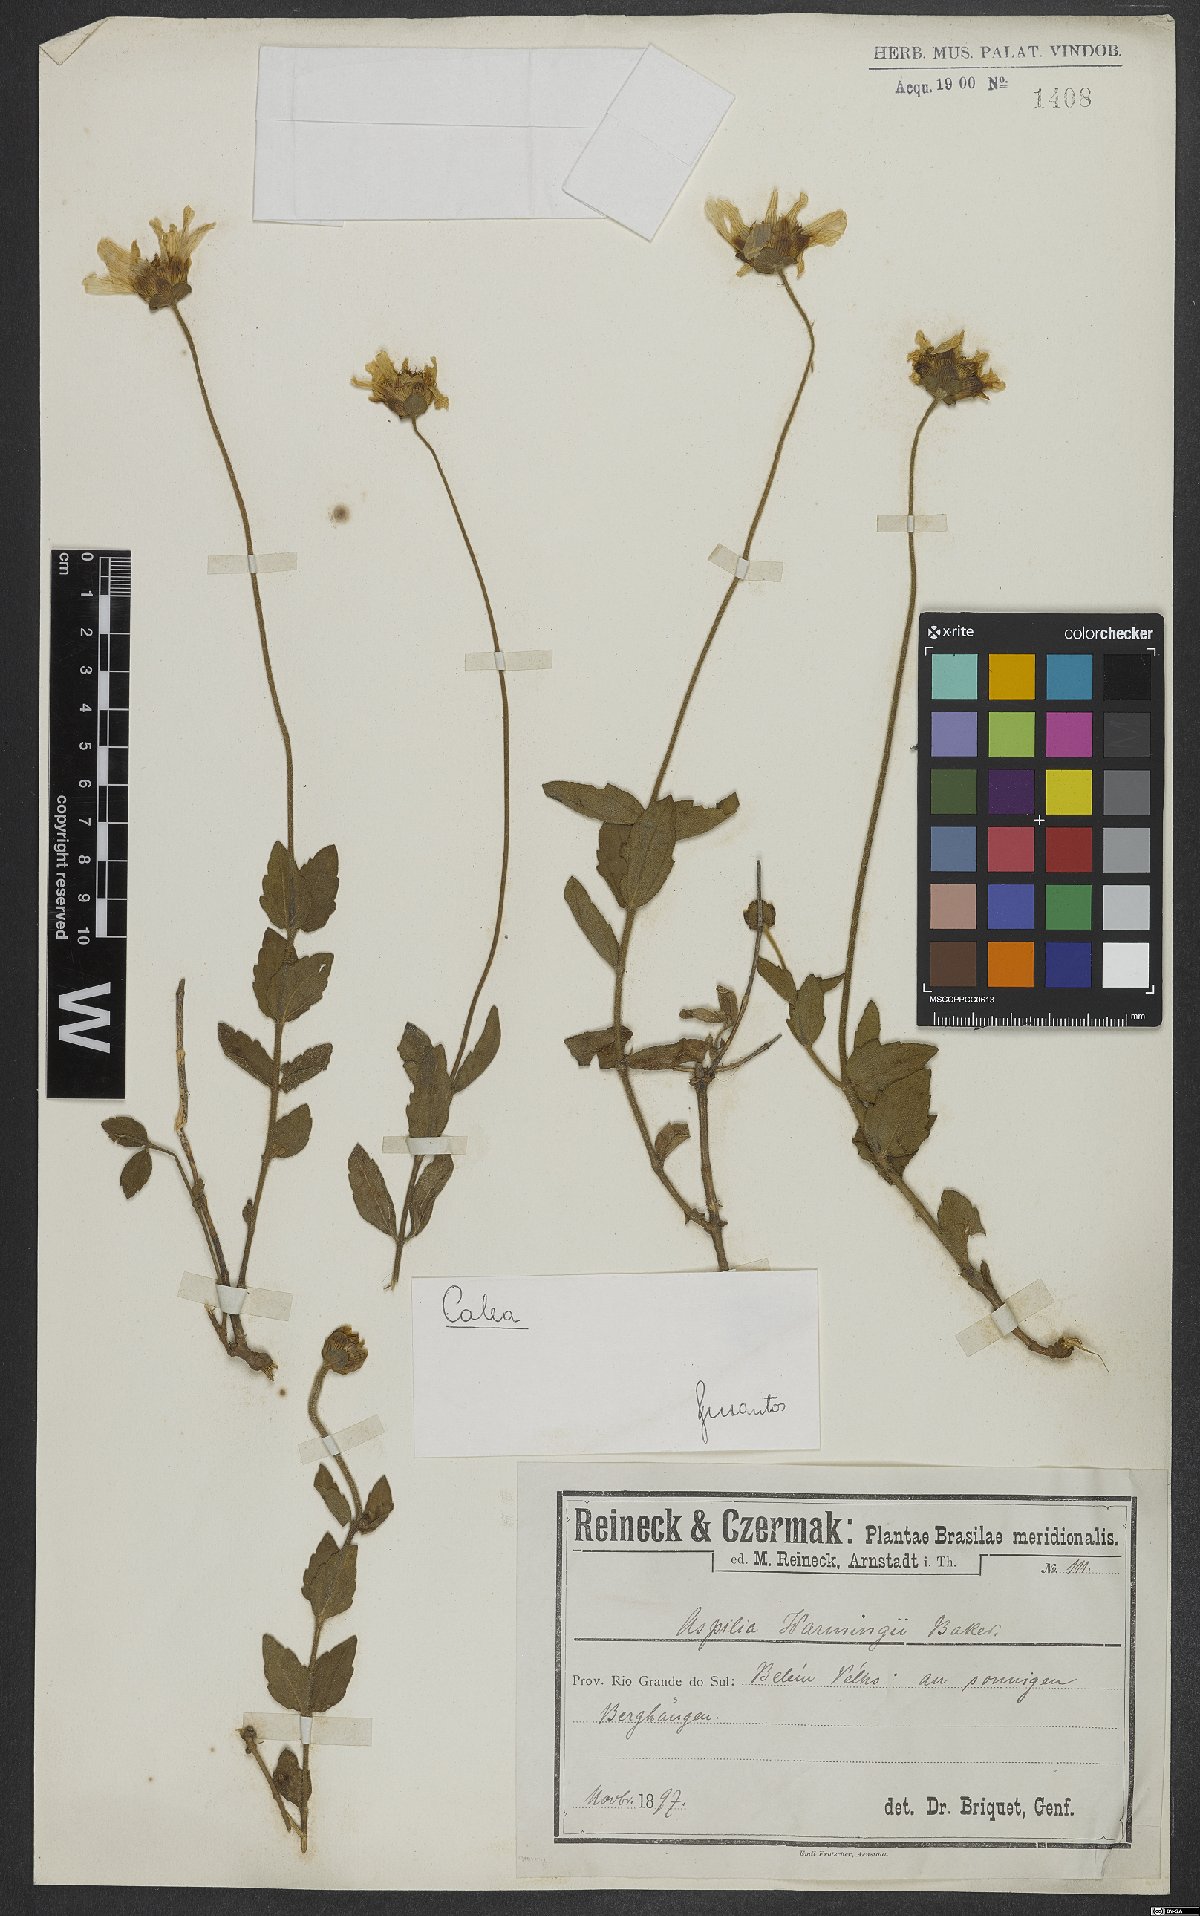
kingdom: Plantae
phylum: Tracheophyta
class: Magnoliopsida
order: Asterales
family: Asteraceae
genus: Calea
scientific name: Calea
